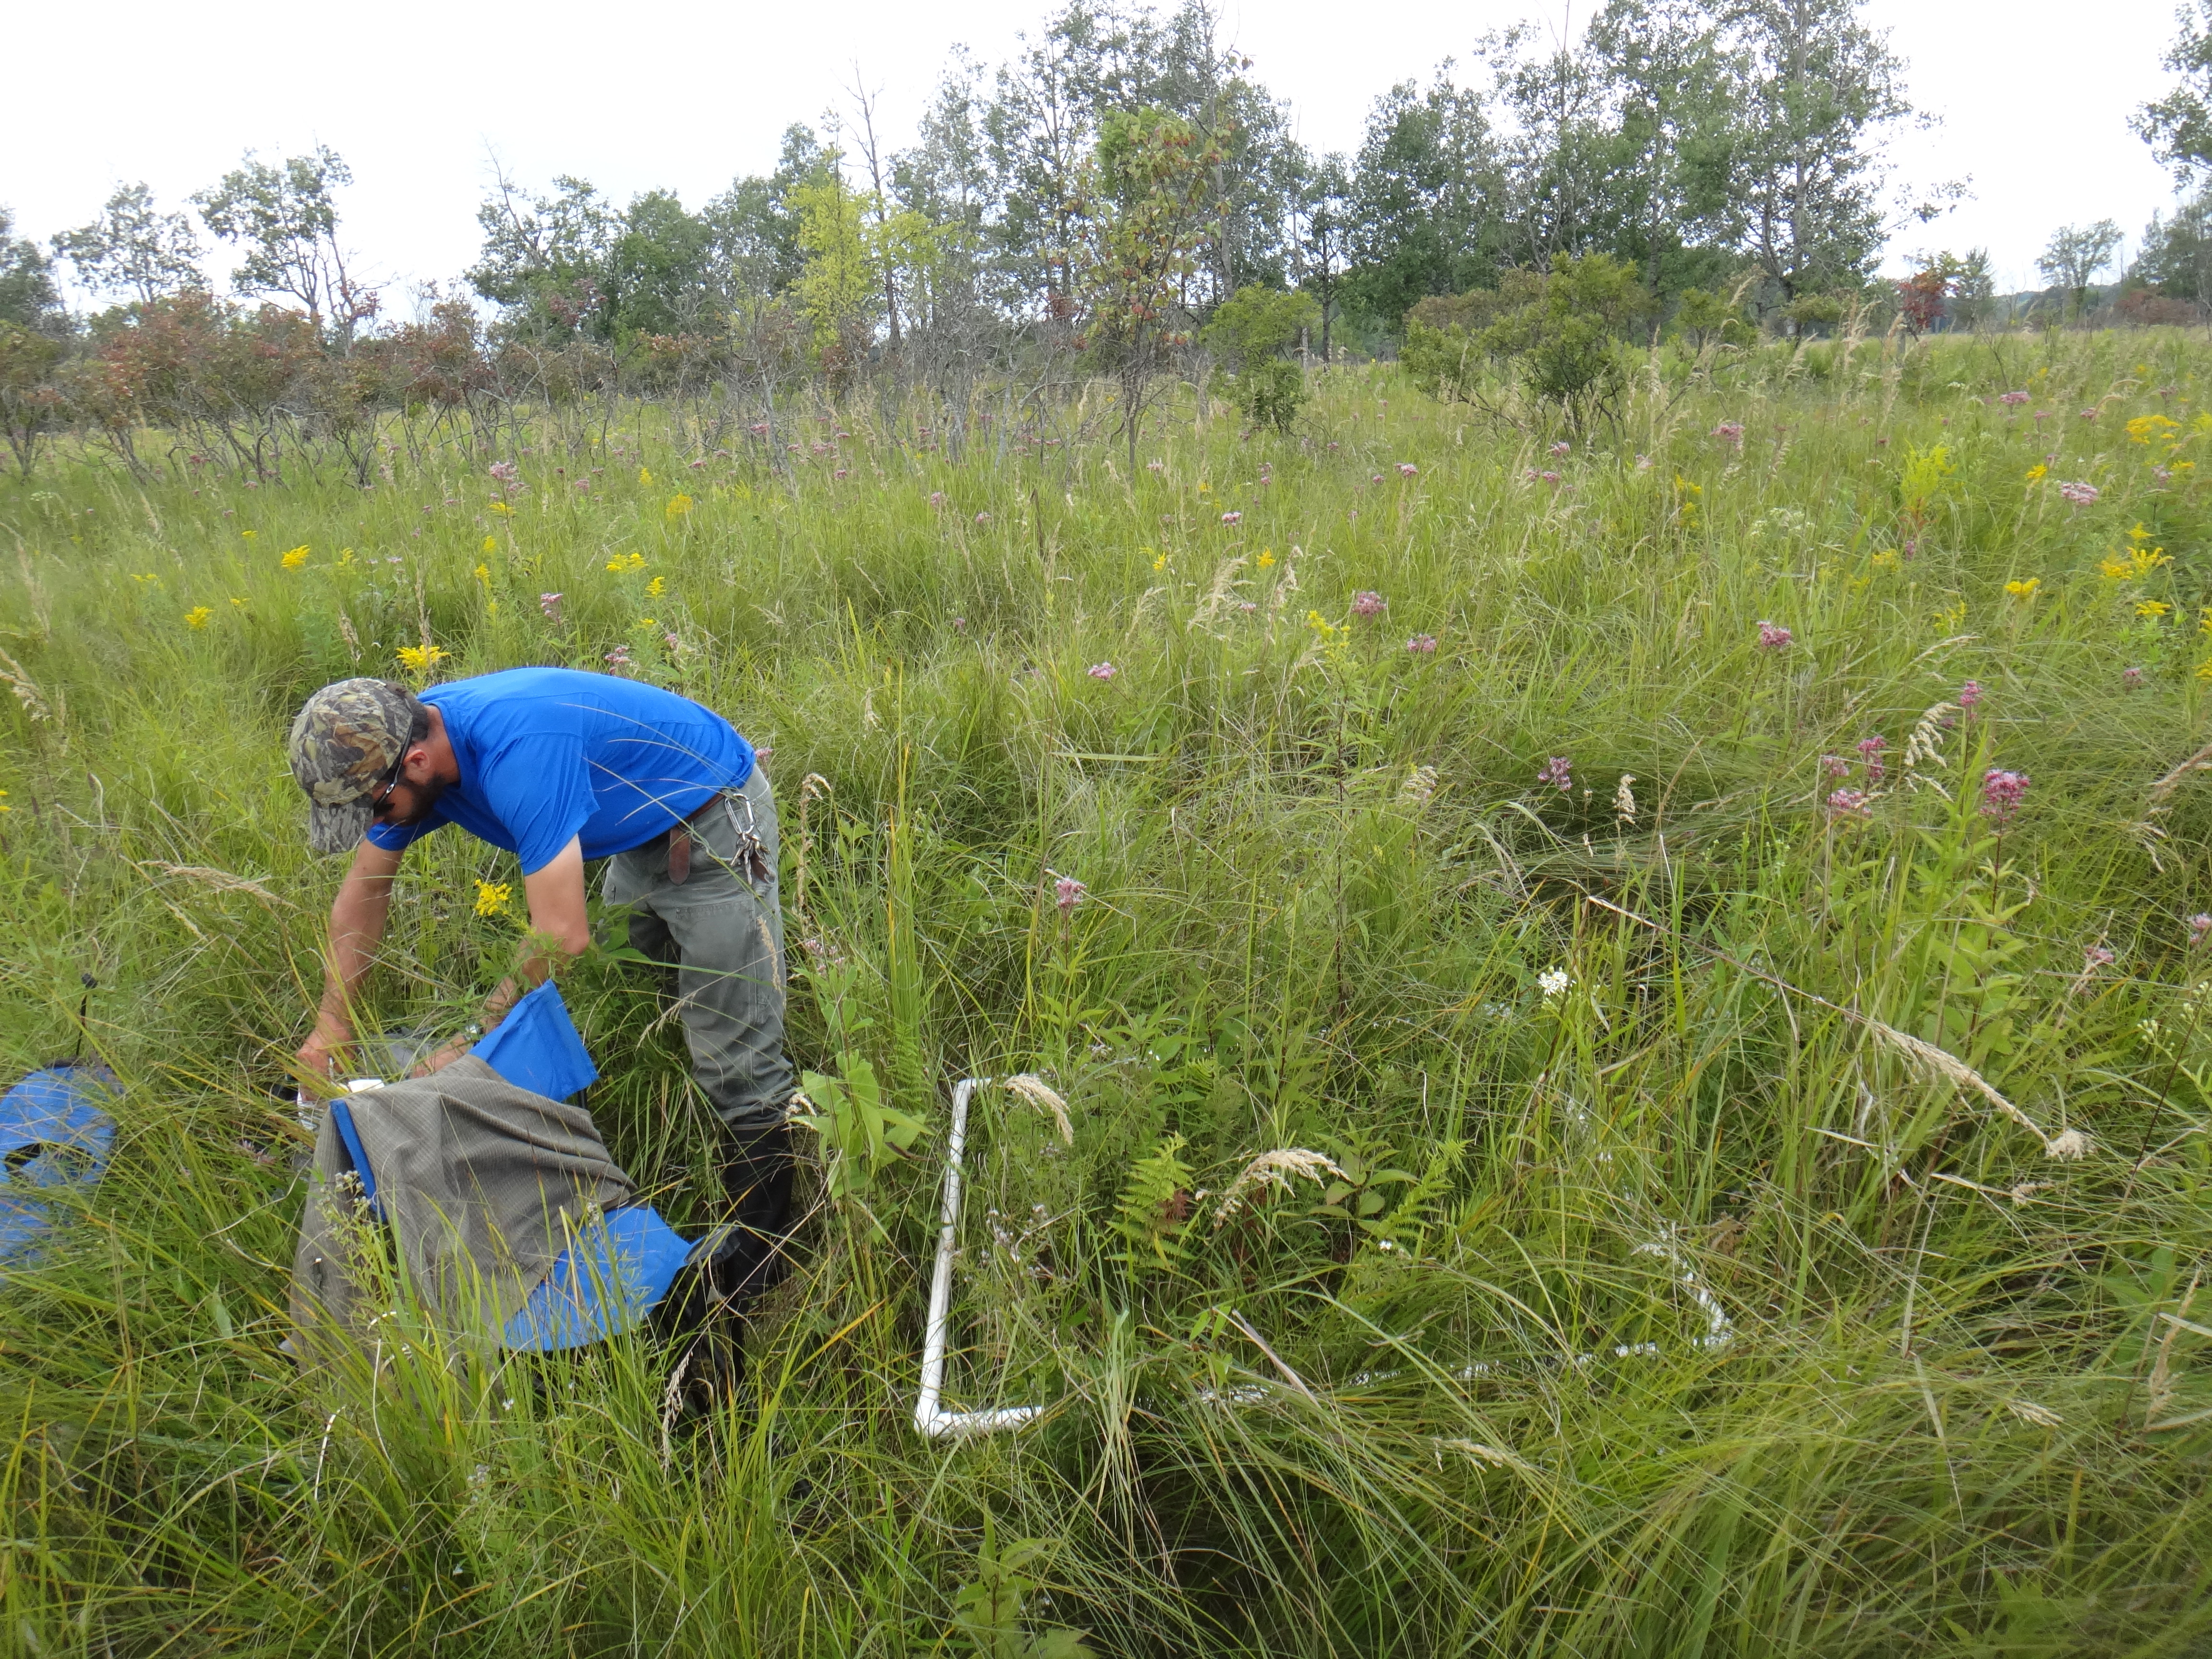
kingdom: Plantae
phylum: Tracheophyta
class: Magnoliopsida
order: Lamiales
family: Lamiaceae
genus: Pycnanthemum
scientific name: Pycnanthemum virginianum
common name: Virginia mountain-mint
